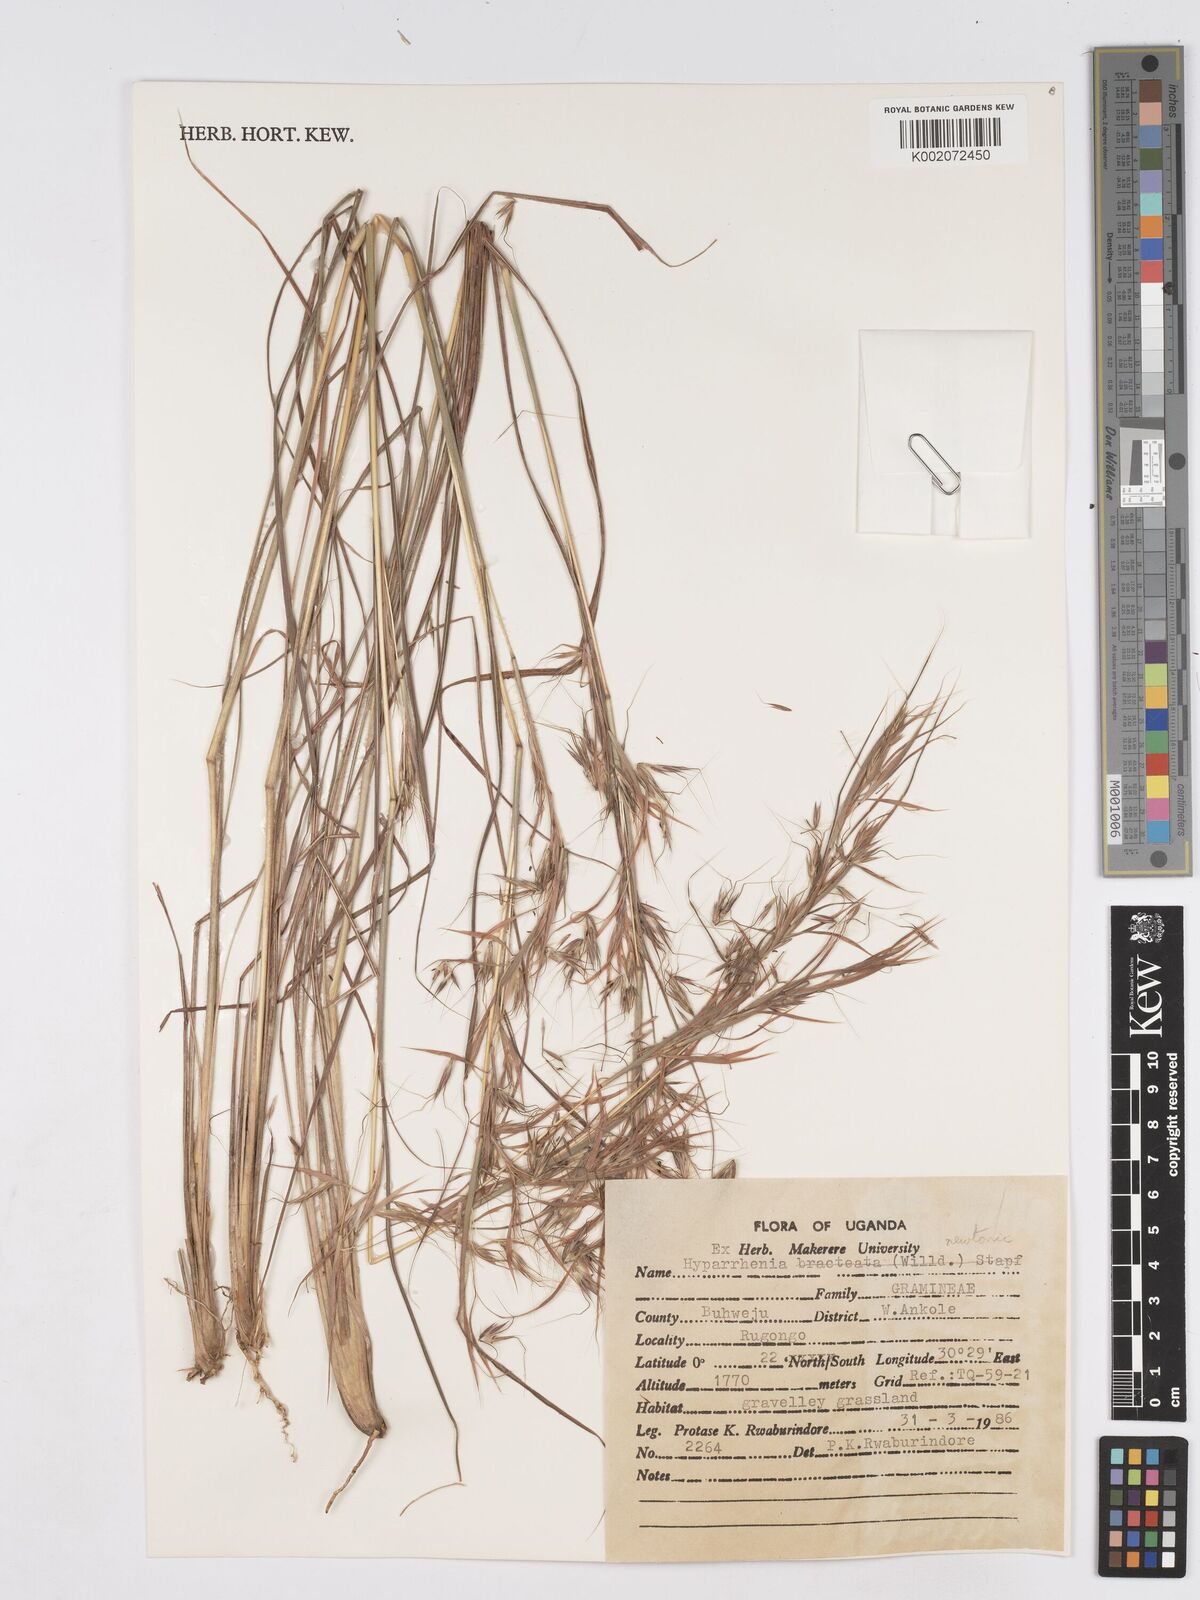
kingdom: Plantae
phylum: Tracheophyta
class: Liliopsida
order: Poales
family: Poaceae
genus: Hyparrhenia
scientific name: Hyparrhenia newtonii
